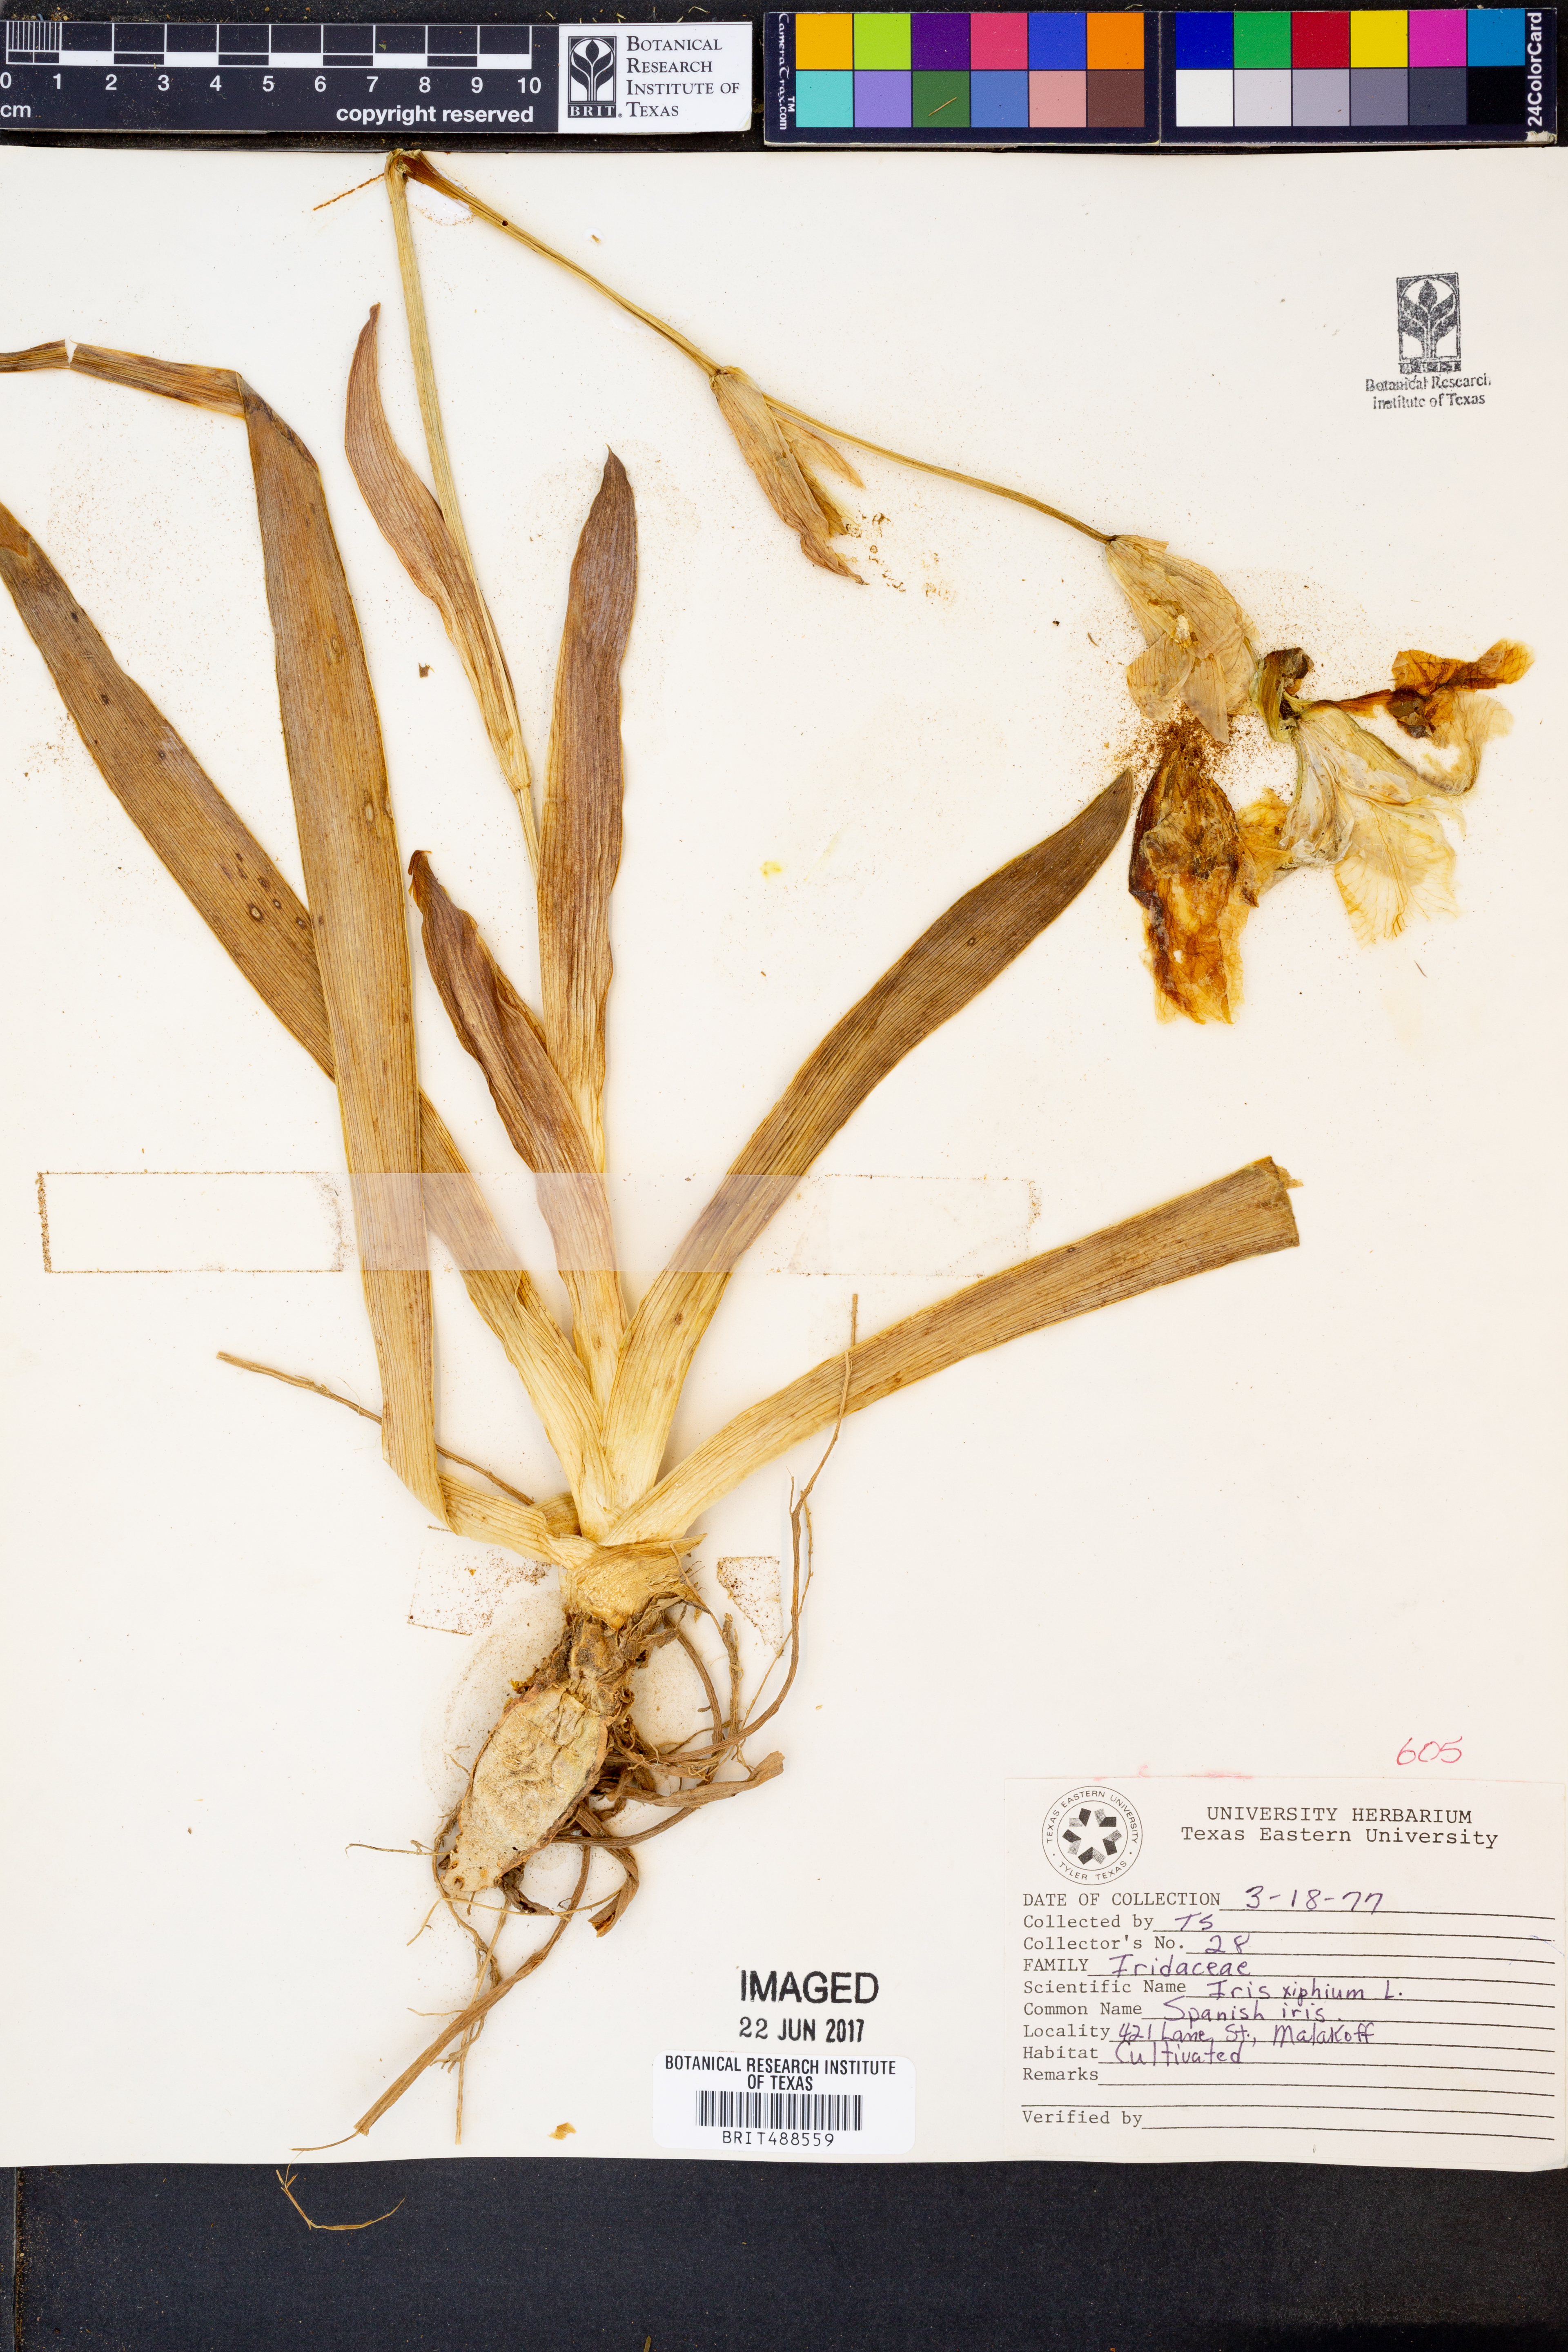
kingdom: Plantae
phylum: Tracheophyta
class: Liliopsida
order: Asparagales
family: Iridaceae
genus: Iris
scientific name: Iris xiphium
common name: Spanish iris
